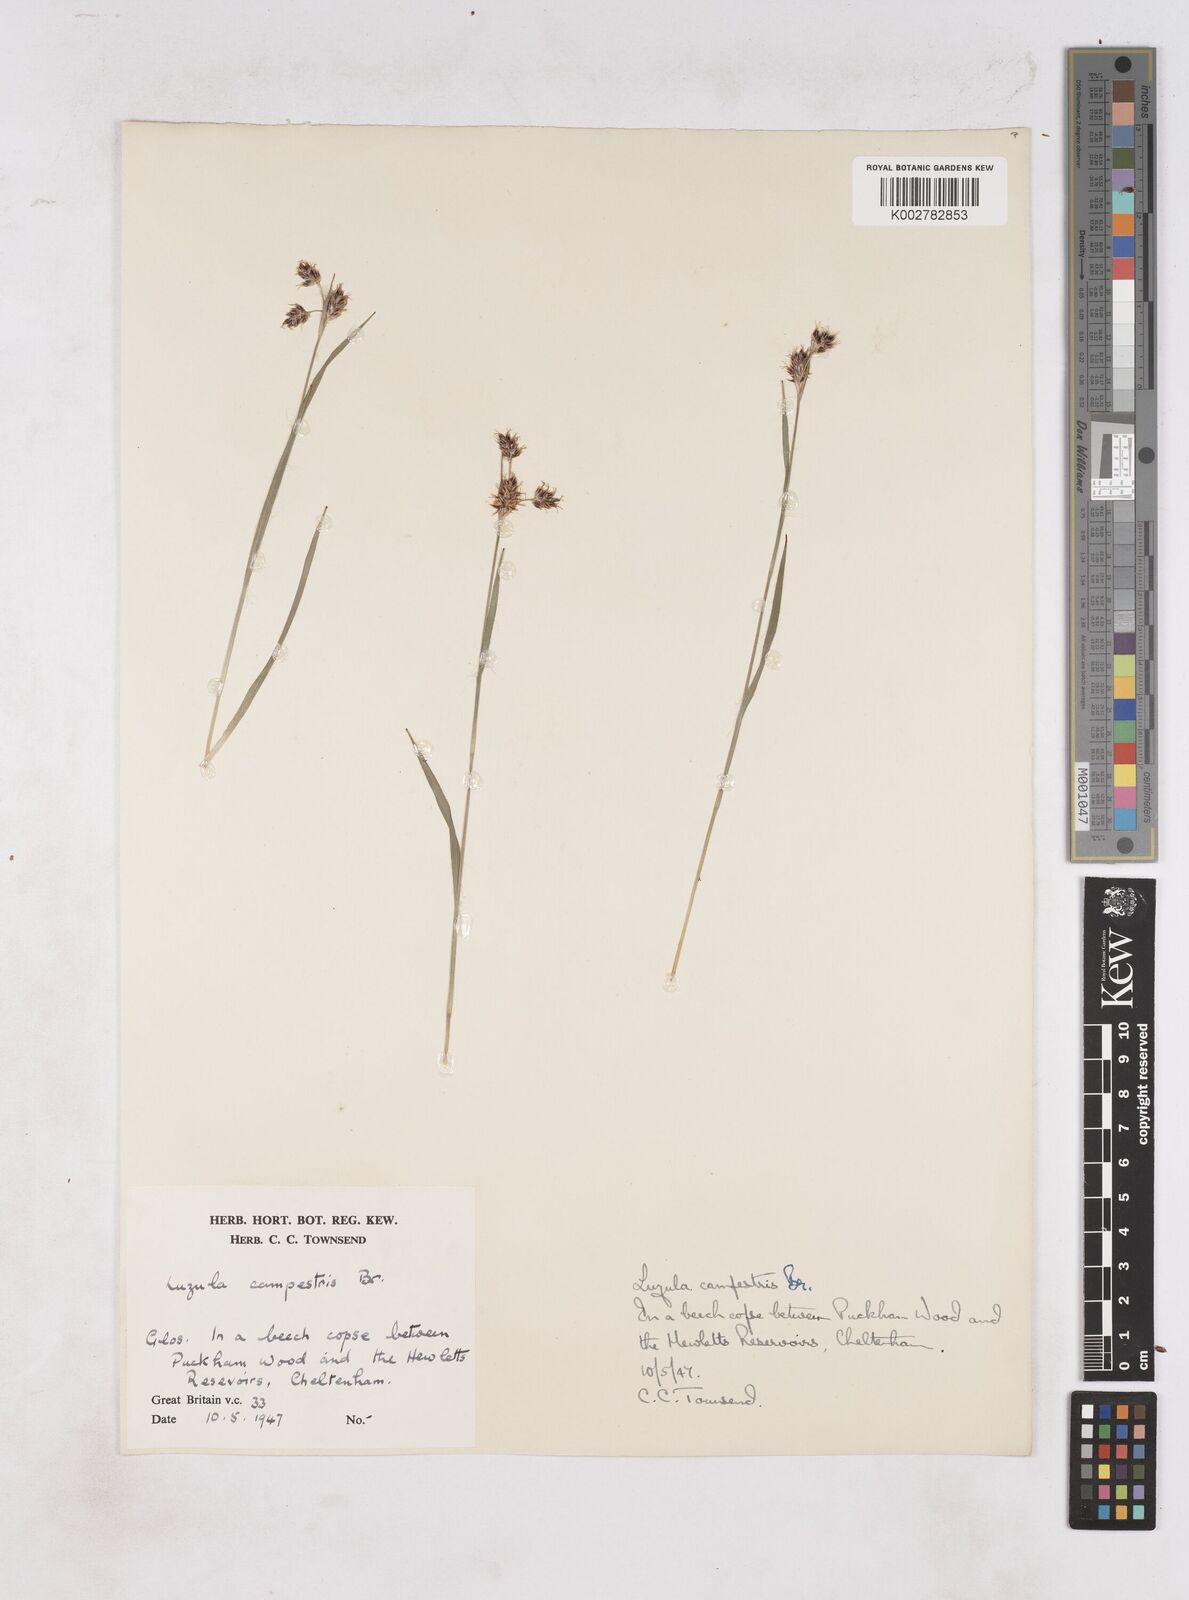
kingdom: Plantae
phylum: Tracheophyta
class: Liliopsida
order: Poales
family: Juncaceae
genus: Luzula
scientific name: Luzula campestris
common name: Field wood-rush
